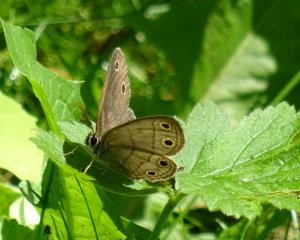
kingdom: Animalia
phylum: Arthropoda
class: Insecta
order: Lepidoptera
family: Nymphalidae
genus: Euptychia
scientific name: Euptychia cymela
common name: Little Wood Satyr
